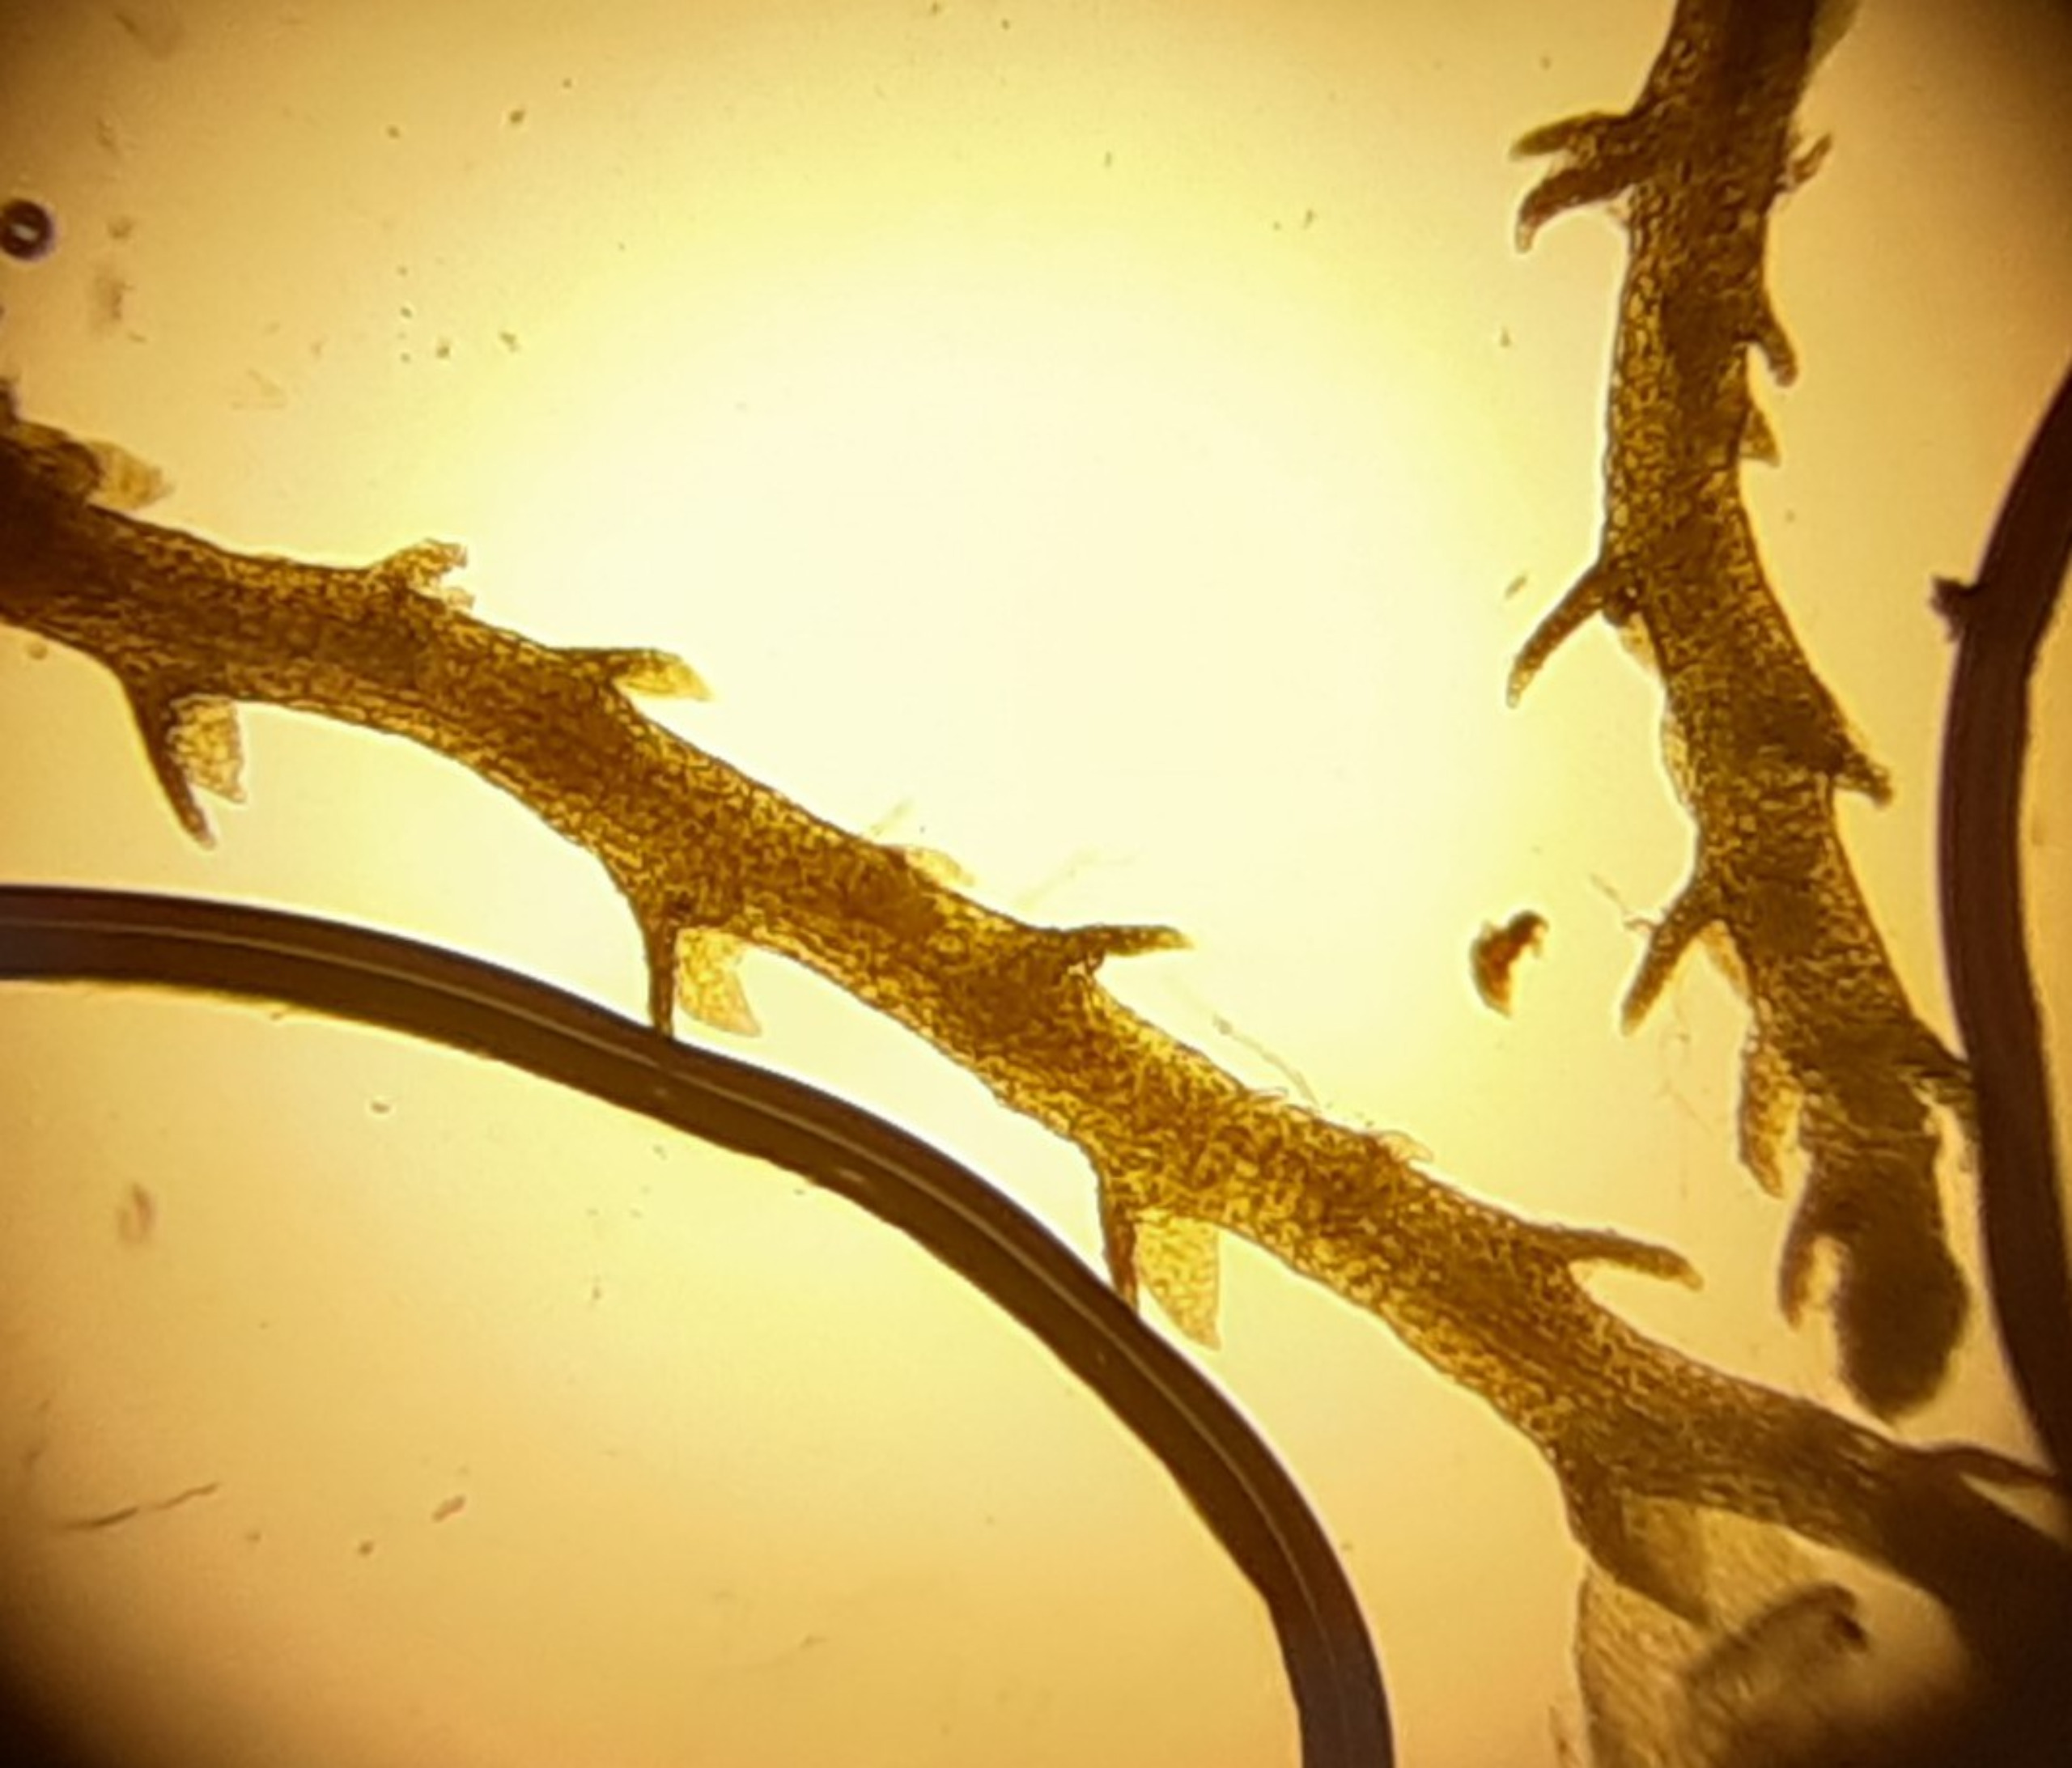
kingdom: Plantae
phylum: Marchantiophyta
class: Jungermanniopsida
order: Jungermanniales
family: Cephaloziellaceae
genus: Cephaloziella
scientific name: Cephaloziella divaricata
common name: Mørk dværgtråd
